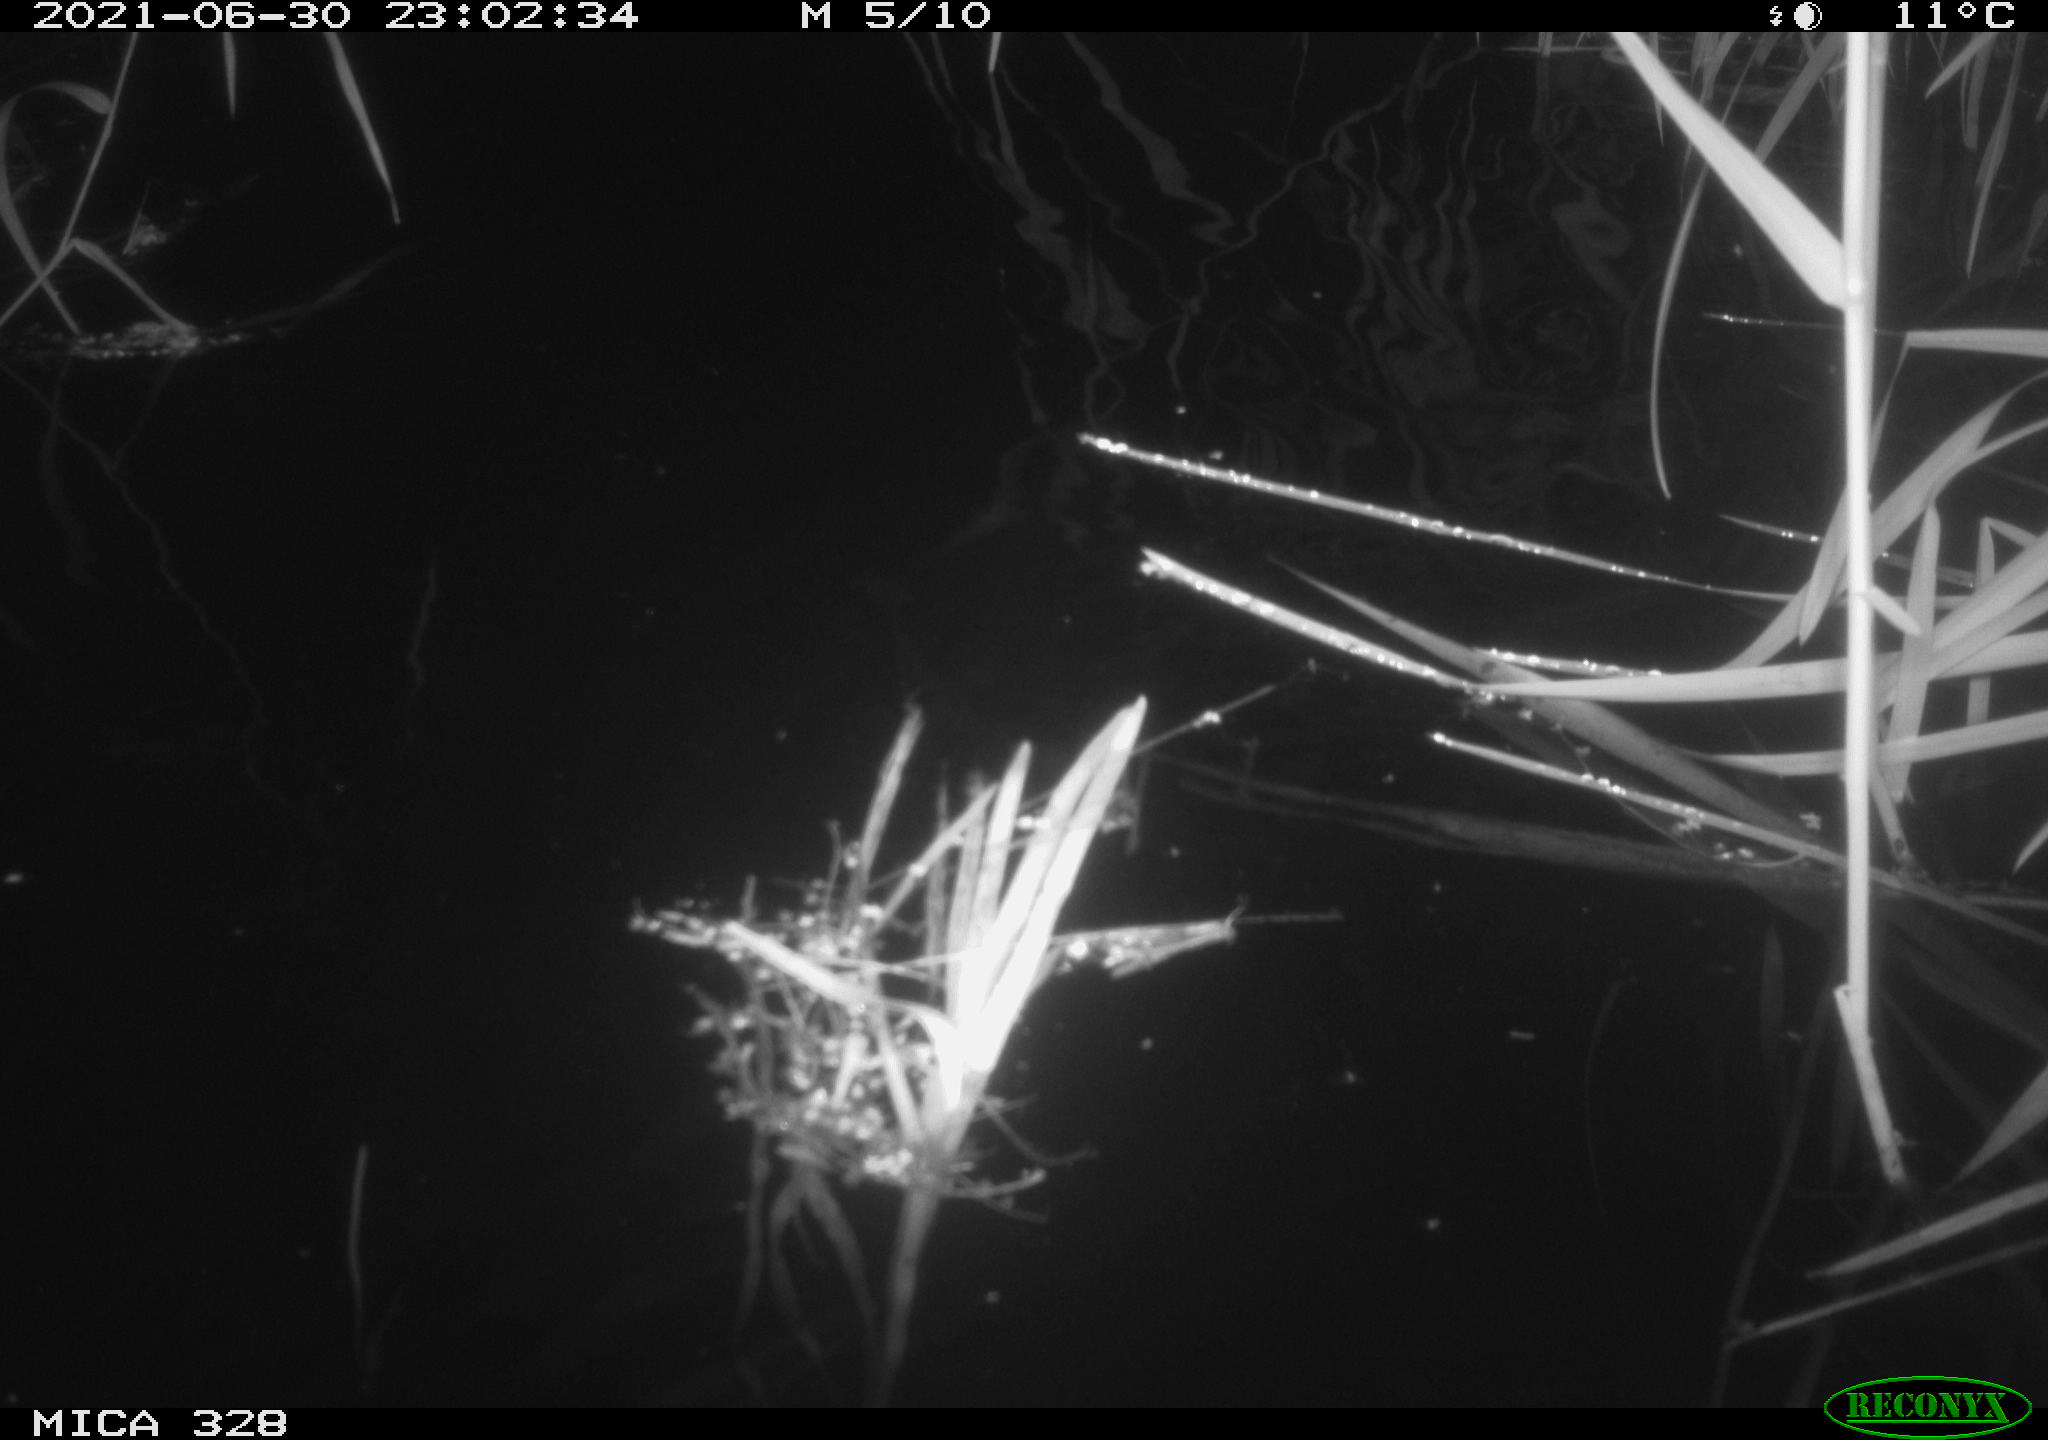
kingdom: Animalia
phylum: Chordata
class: Mammalia
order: Rodentia
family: Cricetidae
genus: Ondatra
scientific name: Ondatra zibethicus
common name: Muskrat
